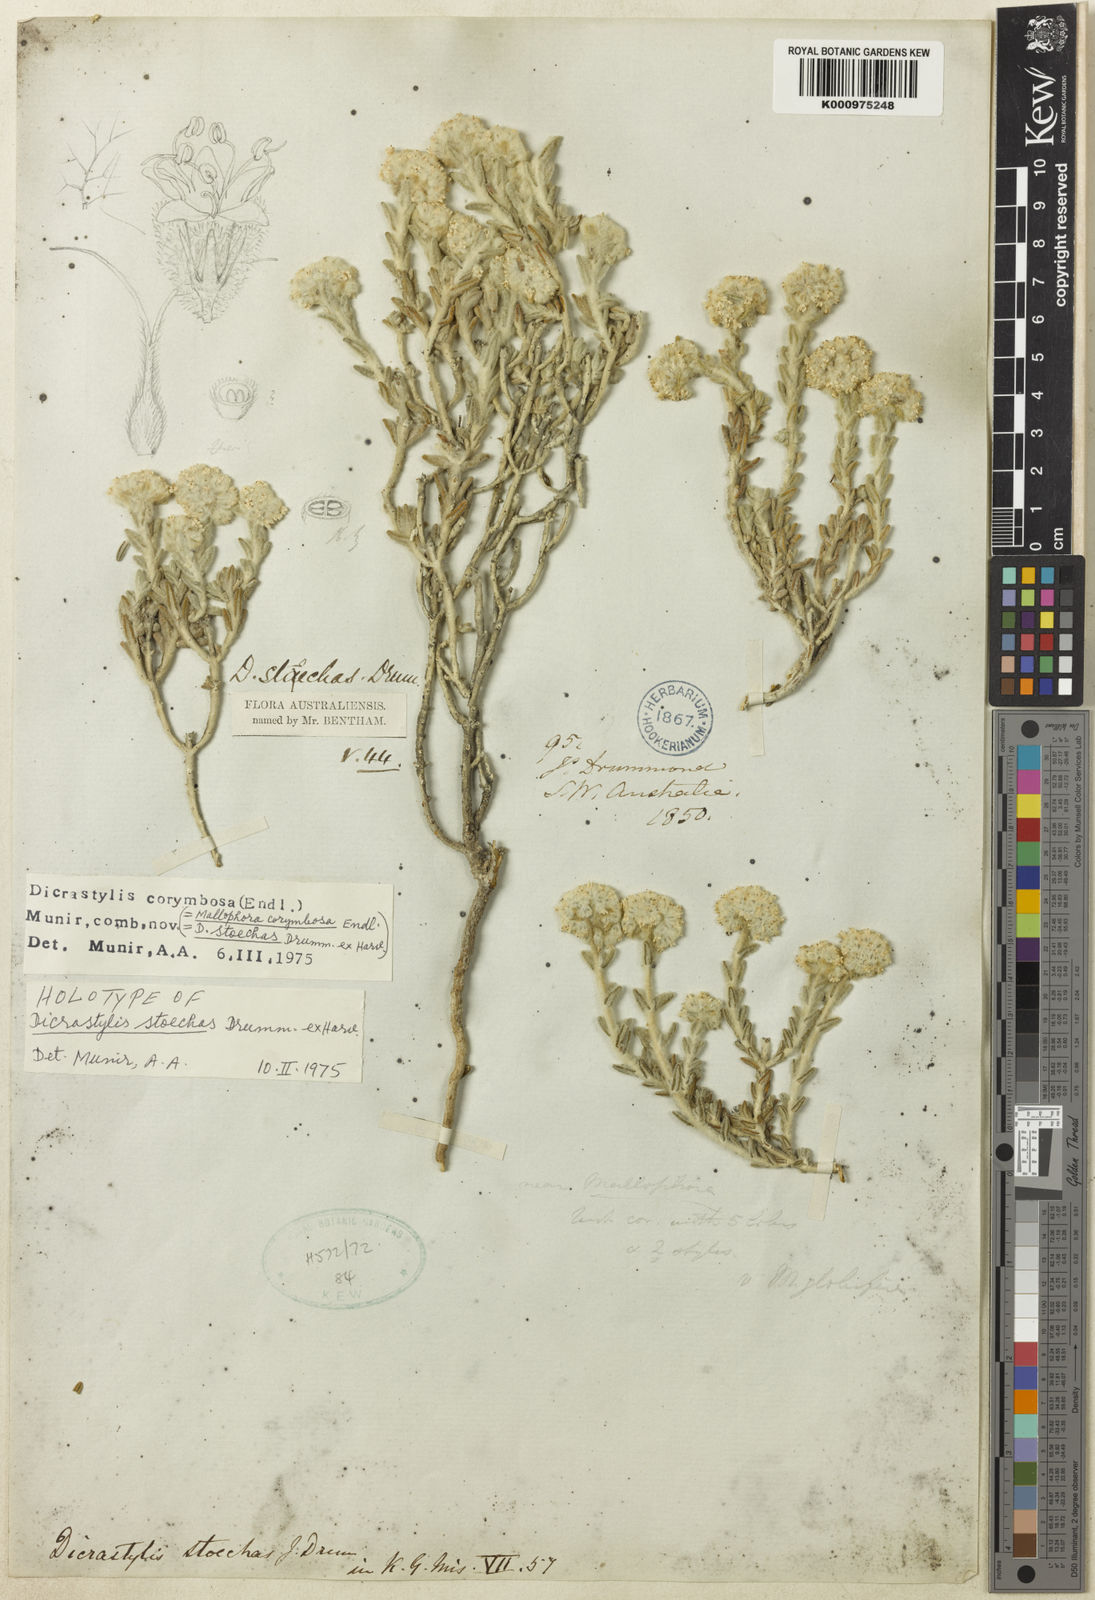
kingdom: Plantae
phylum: Tracheophyta
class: Magnoliopsida
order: Lamiales
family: Lamiaceae
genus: Dicrastylis
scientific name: Dicrastylis corymbosa
